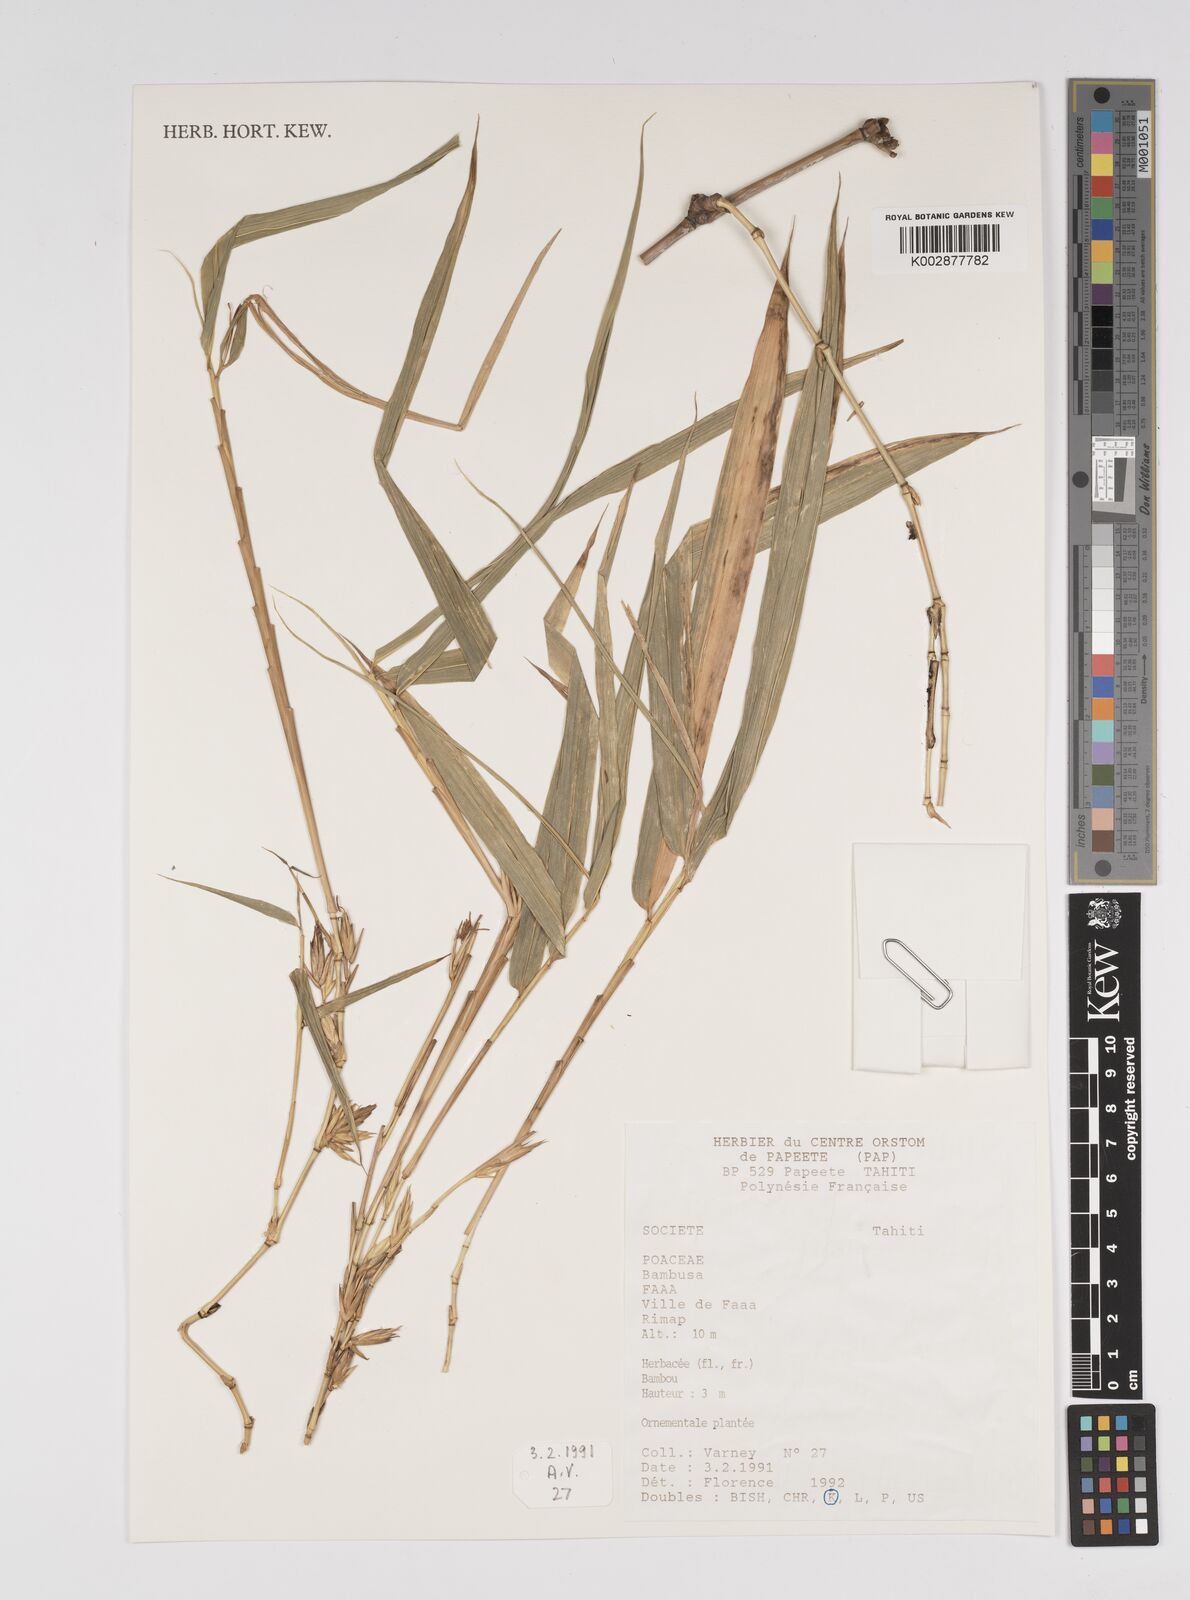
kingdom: Plantae
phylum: Tracheophyta
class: Liliopsida
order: Poales
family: Poaceae
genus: Bambusa
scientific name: Bambusa
